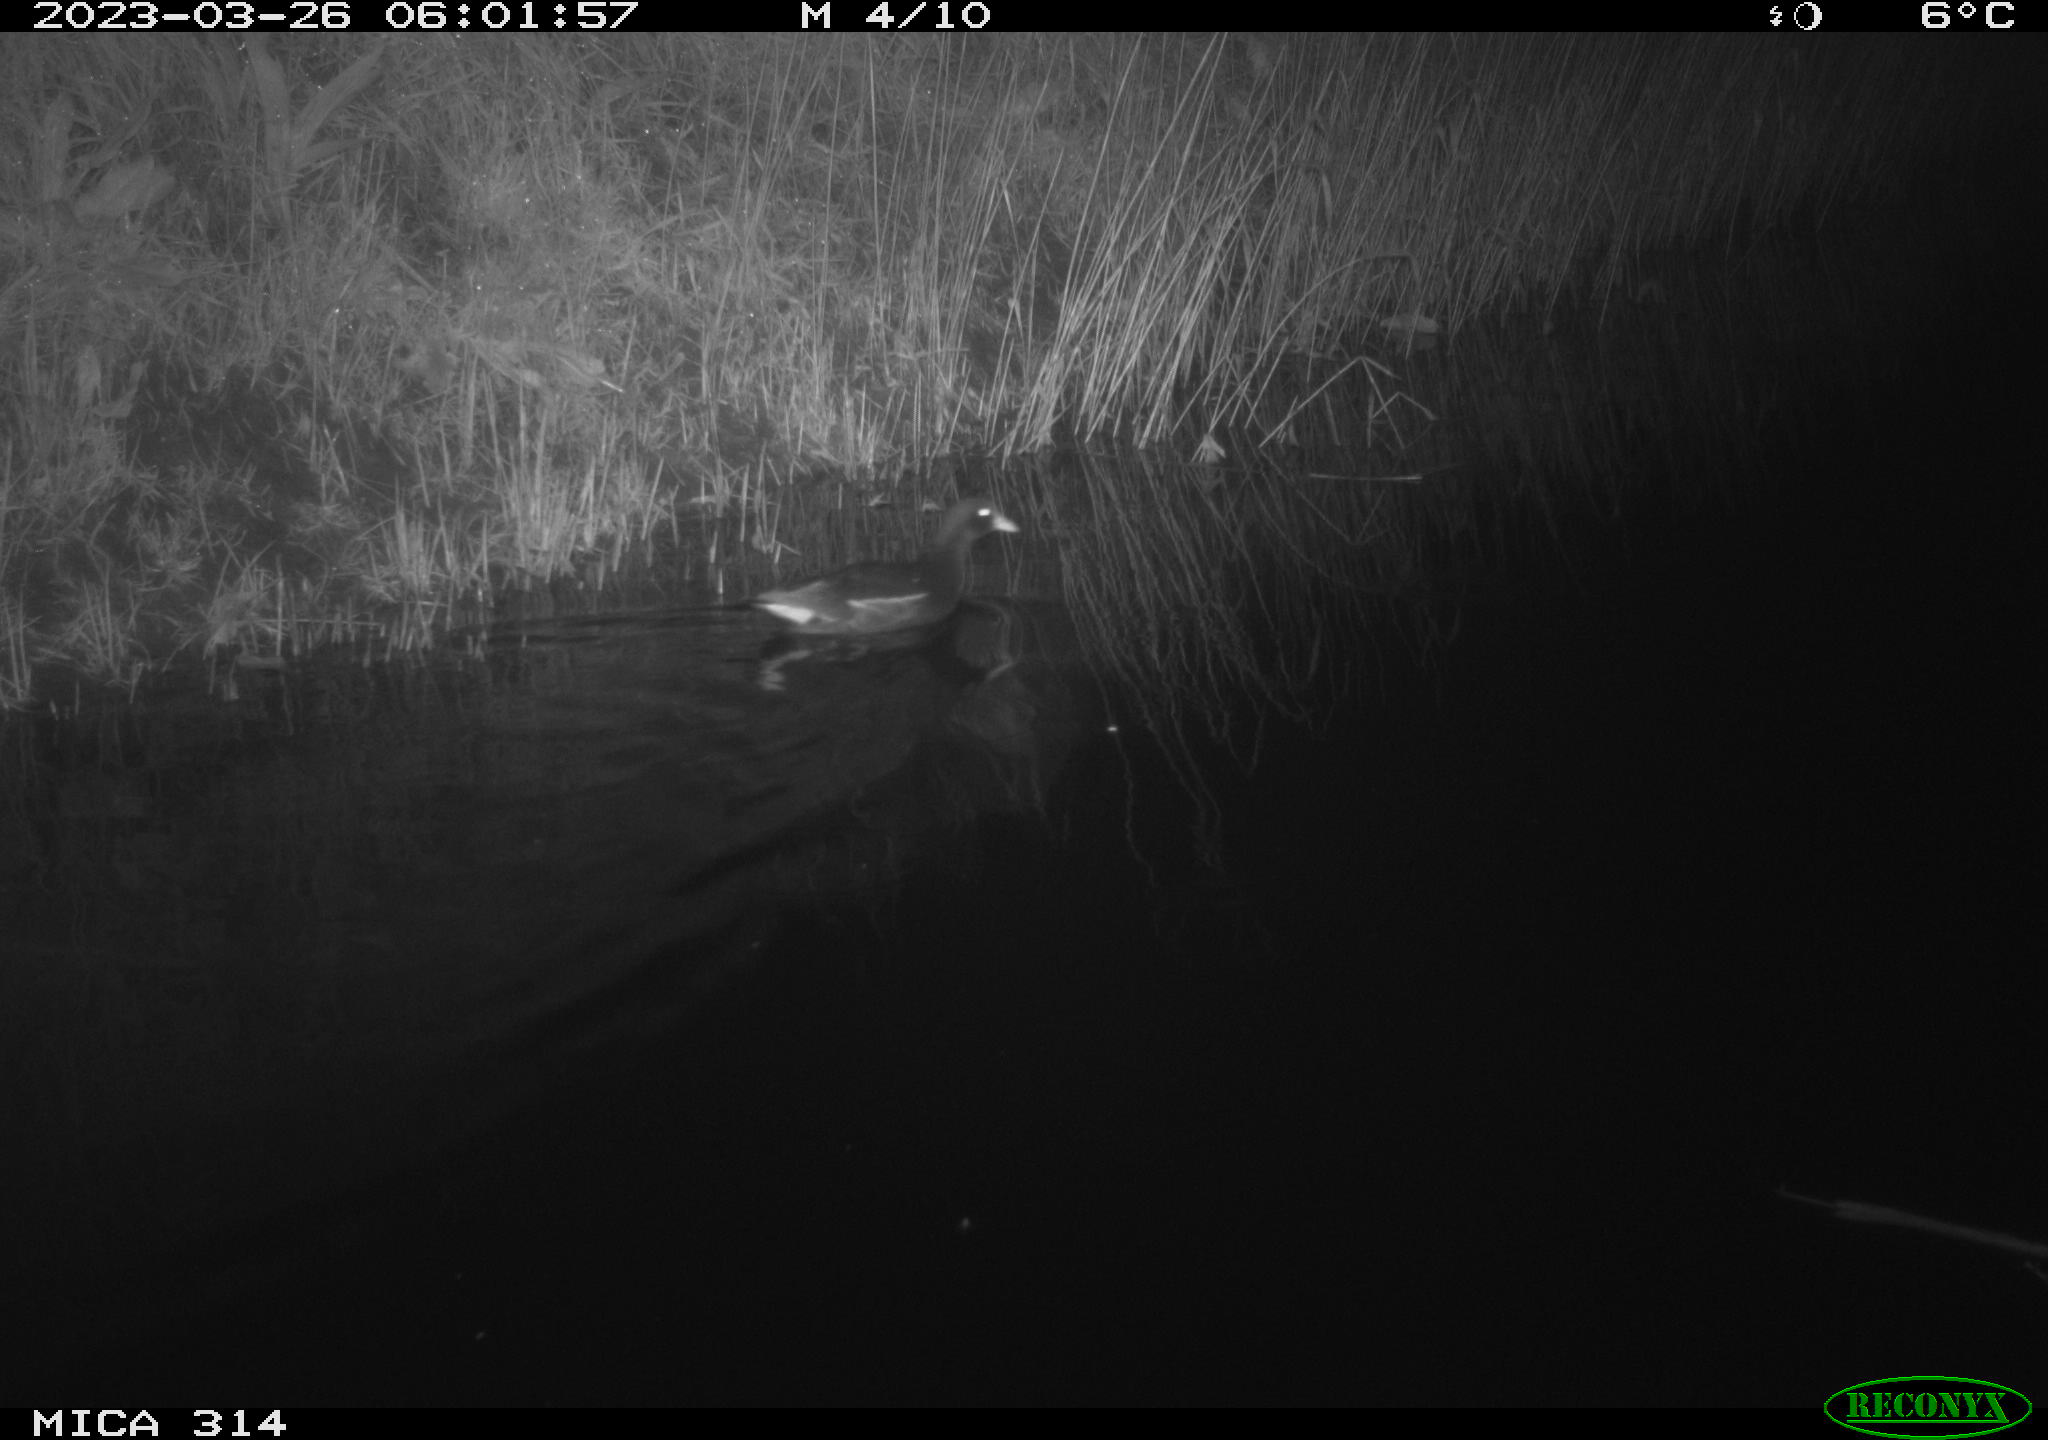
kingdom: Animalia
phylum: Chordata
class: Aves
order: Gruiformes
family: Rallidae
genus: Gallinula
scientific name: Gallinula chloropus
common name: Common moorhen
